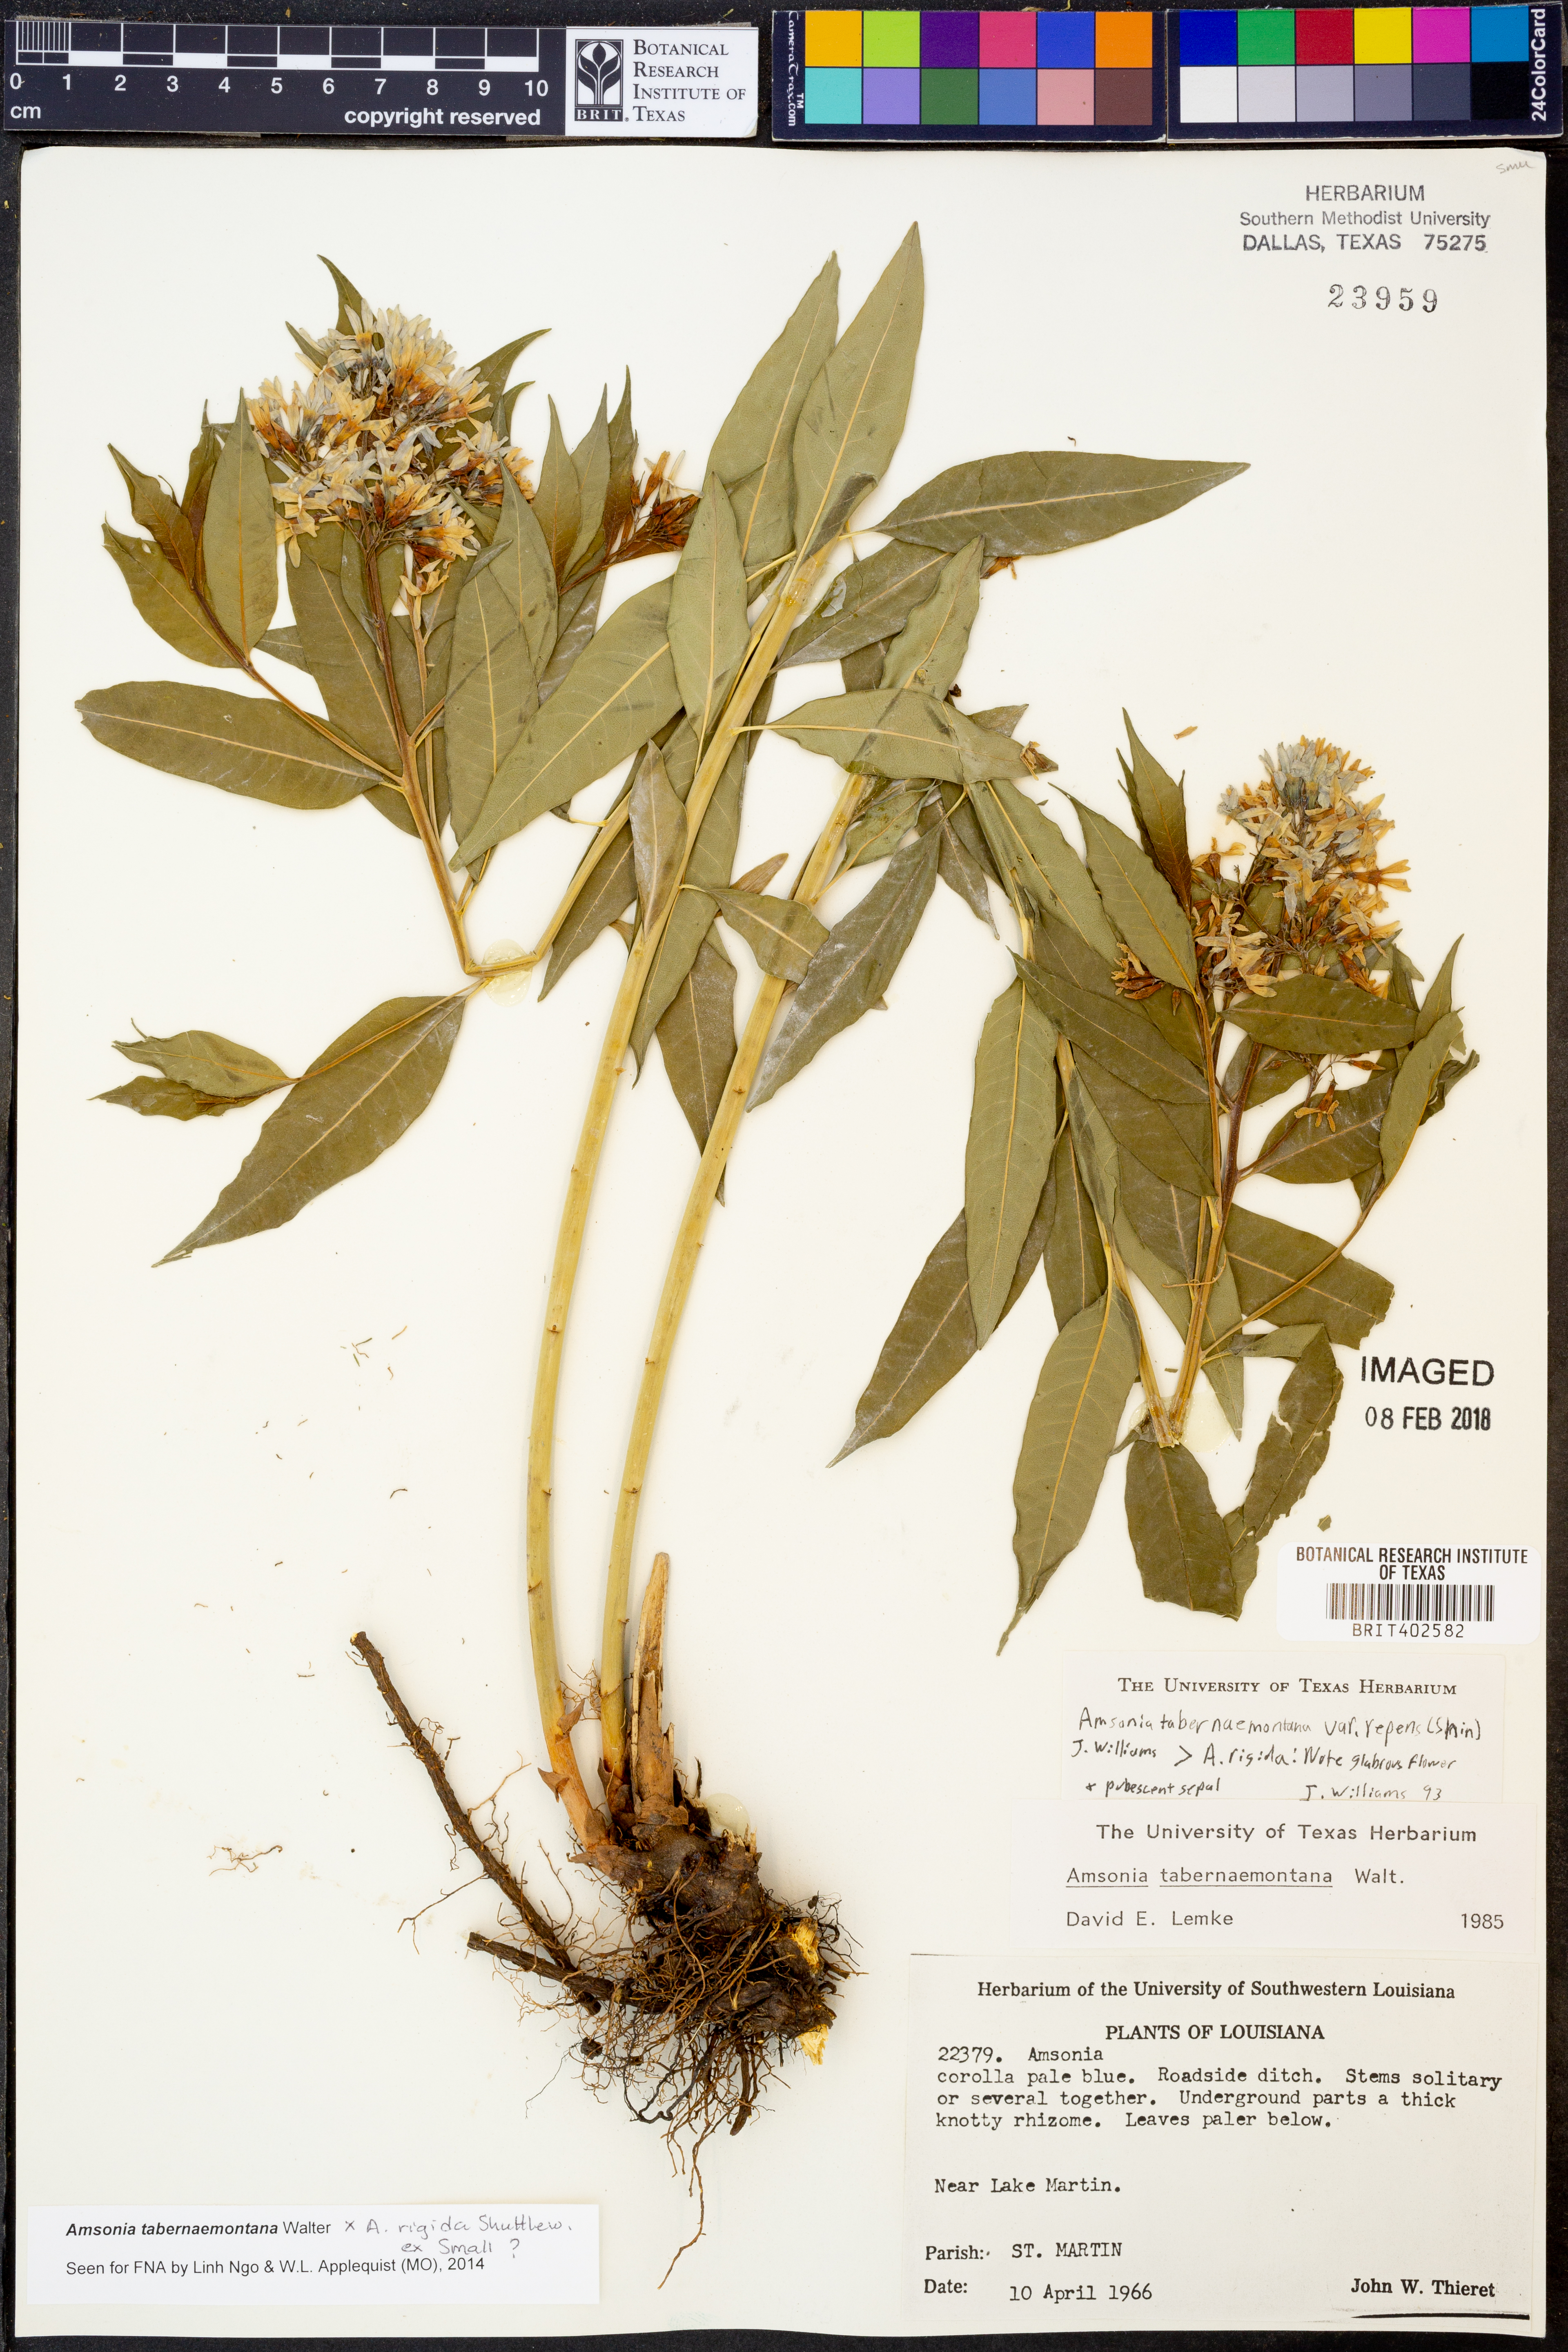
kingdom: Plantae
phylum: Tracheophyta
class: Magnoliopsida
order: Gentianales
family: Apocynaceae
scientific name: Apocynaceae
